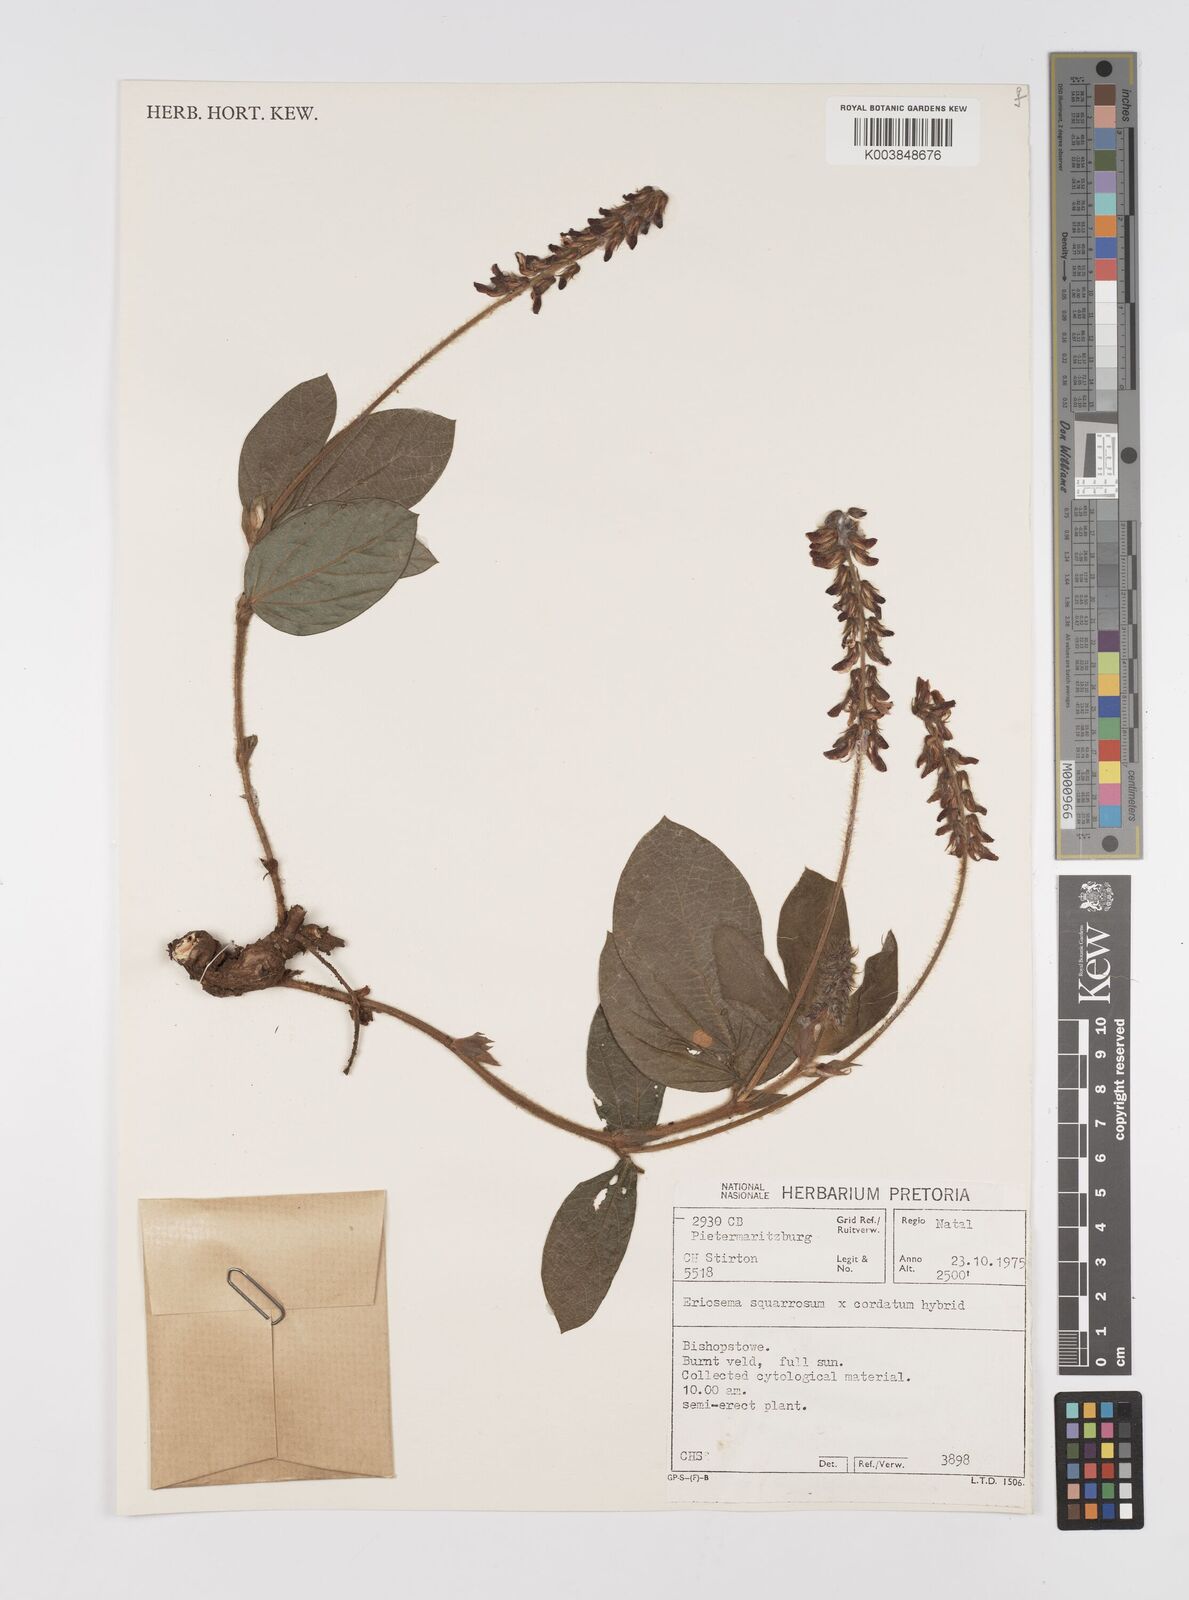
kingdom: Plantae
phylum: Tracheophyta
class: Magnoliopsida
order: Fabales
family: Fabaceae
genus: Eriosema
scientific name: Eriosema squarrosum
